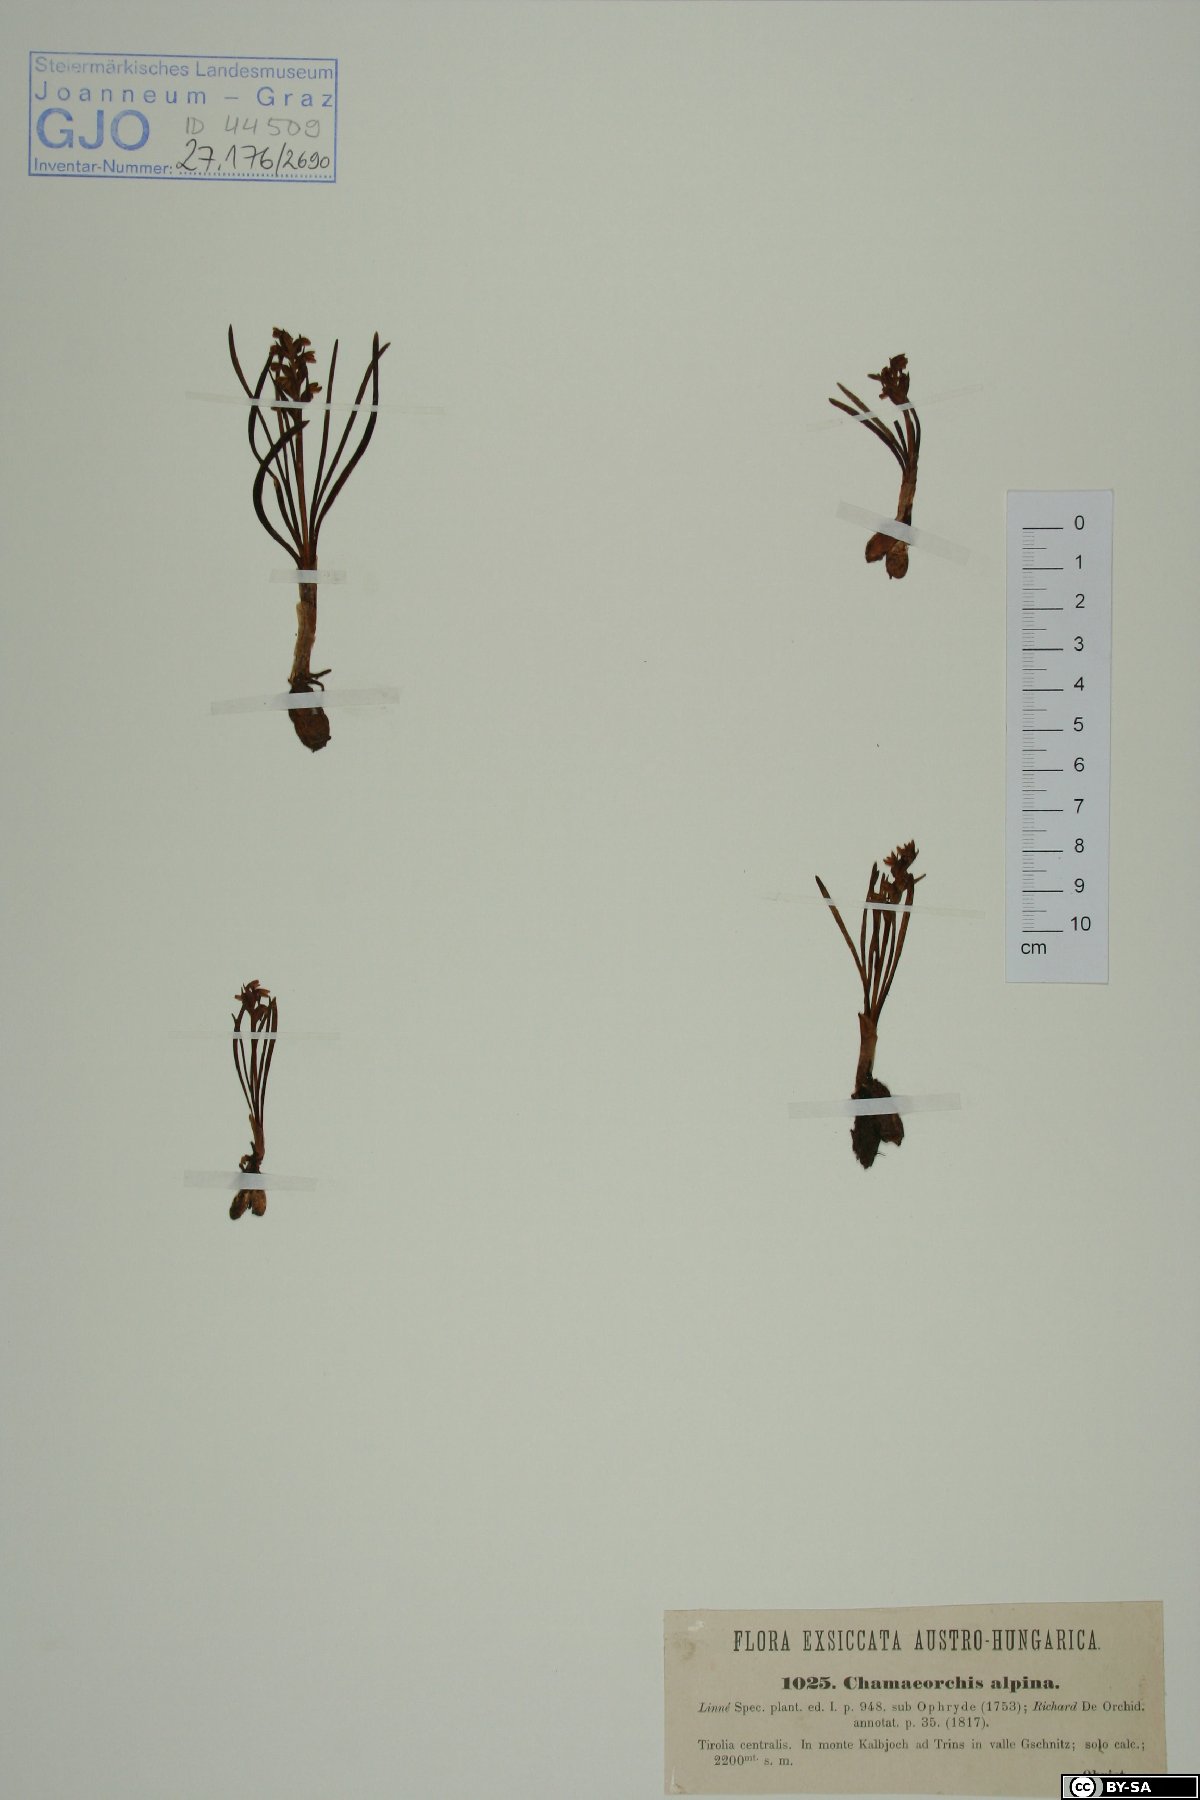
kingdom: Plantae
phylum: Tracheophyta
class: Liliopsida
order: Asparagales
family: Orchidaceae
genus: Chamorchis
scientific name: Chamorchis alpina
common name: Alpine chamorchis
